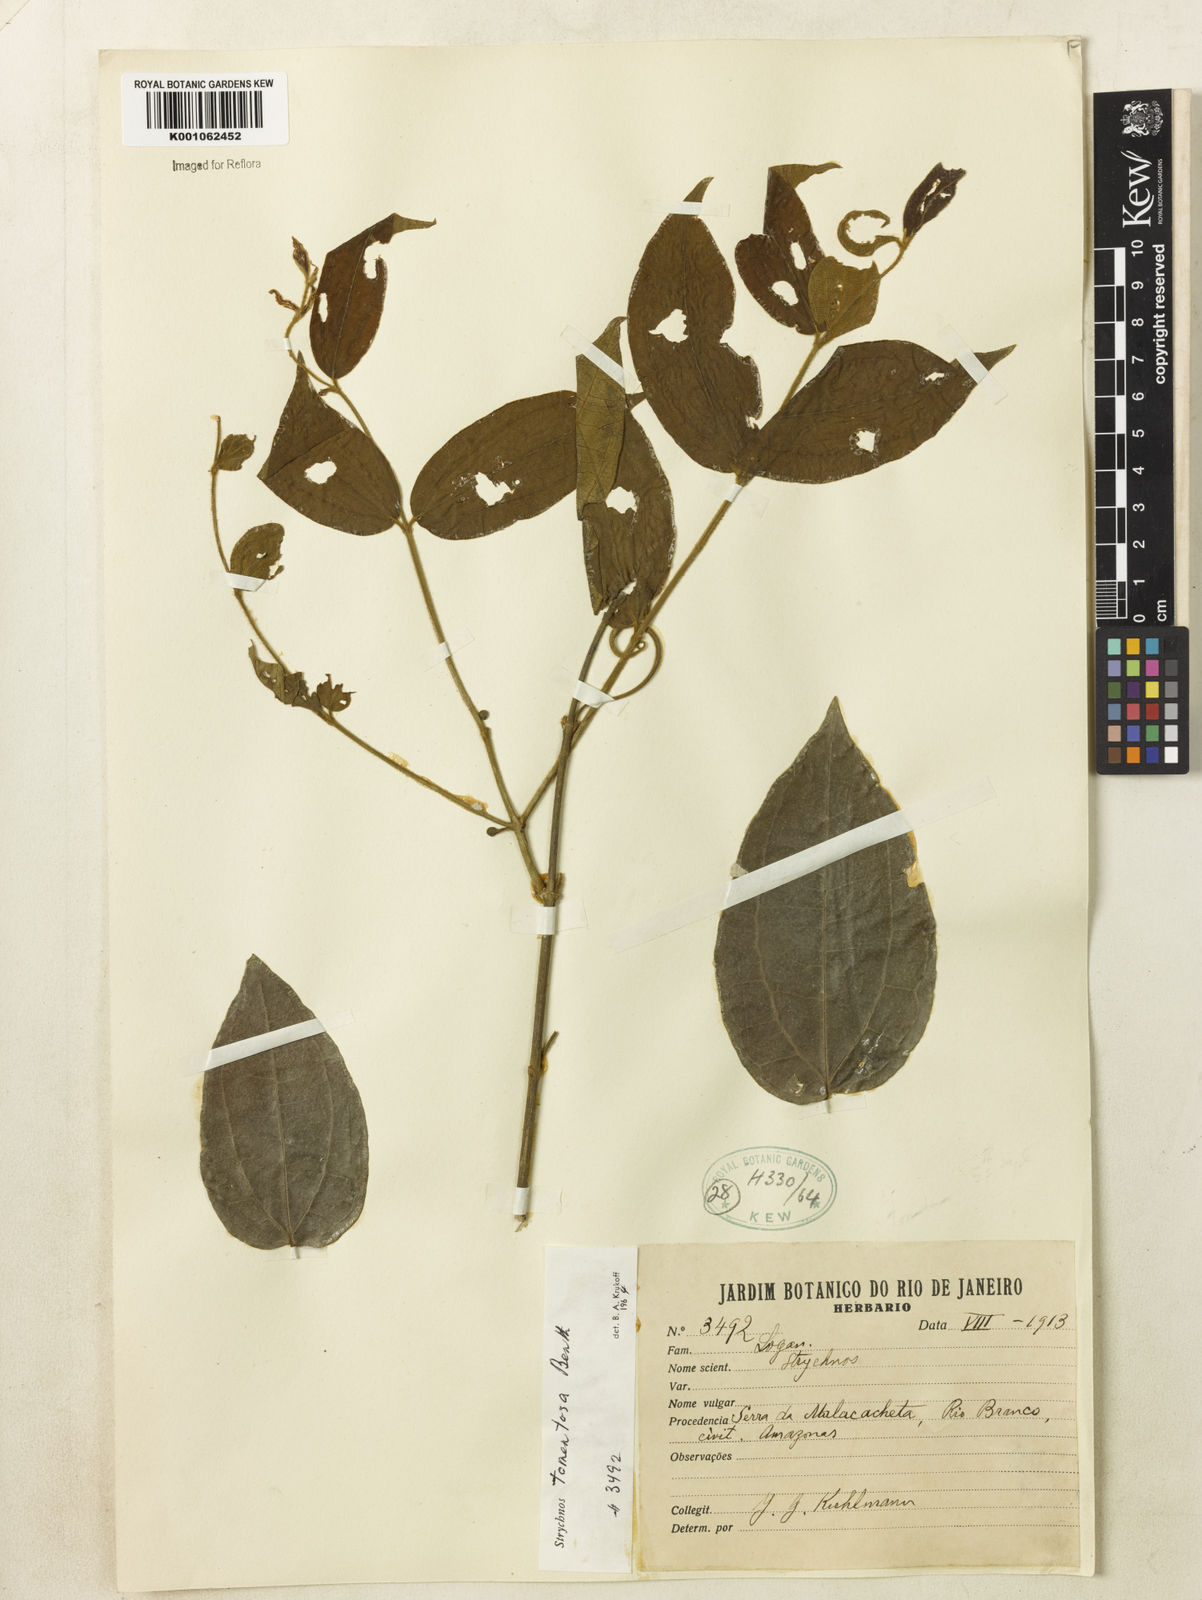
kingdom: Plantae
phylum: Tracheophyta
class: Magnoliopsida
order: Gentianales
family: Loganiaceae
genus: Strychnos
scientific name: Strychnos tomentosa
